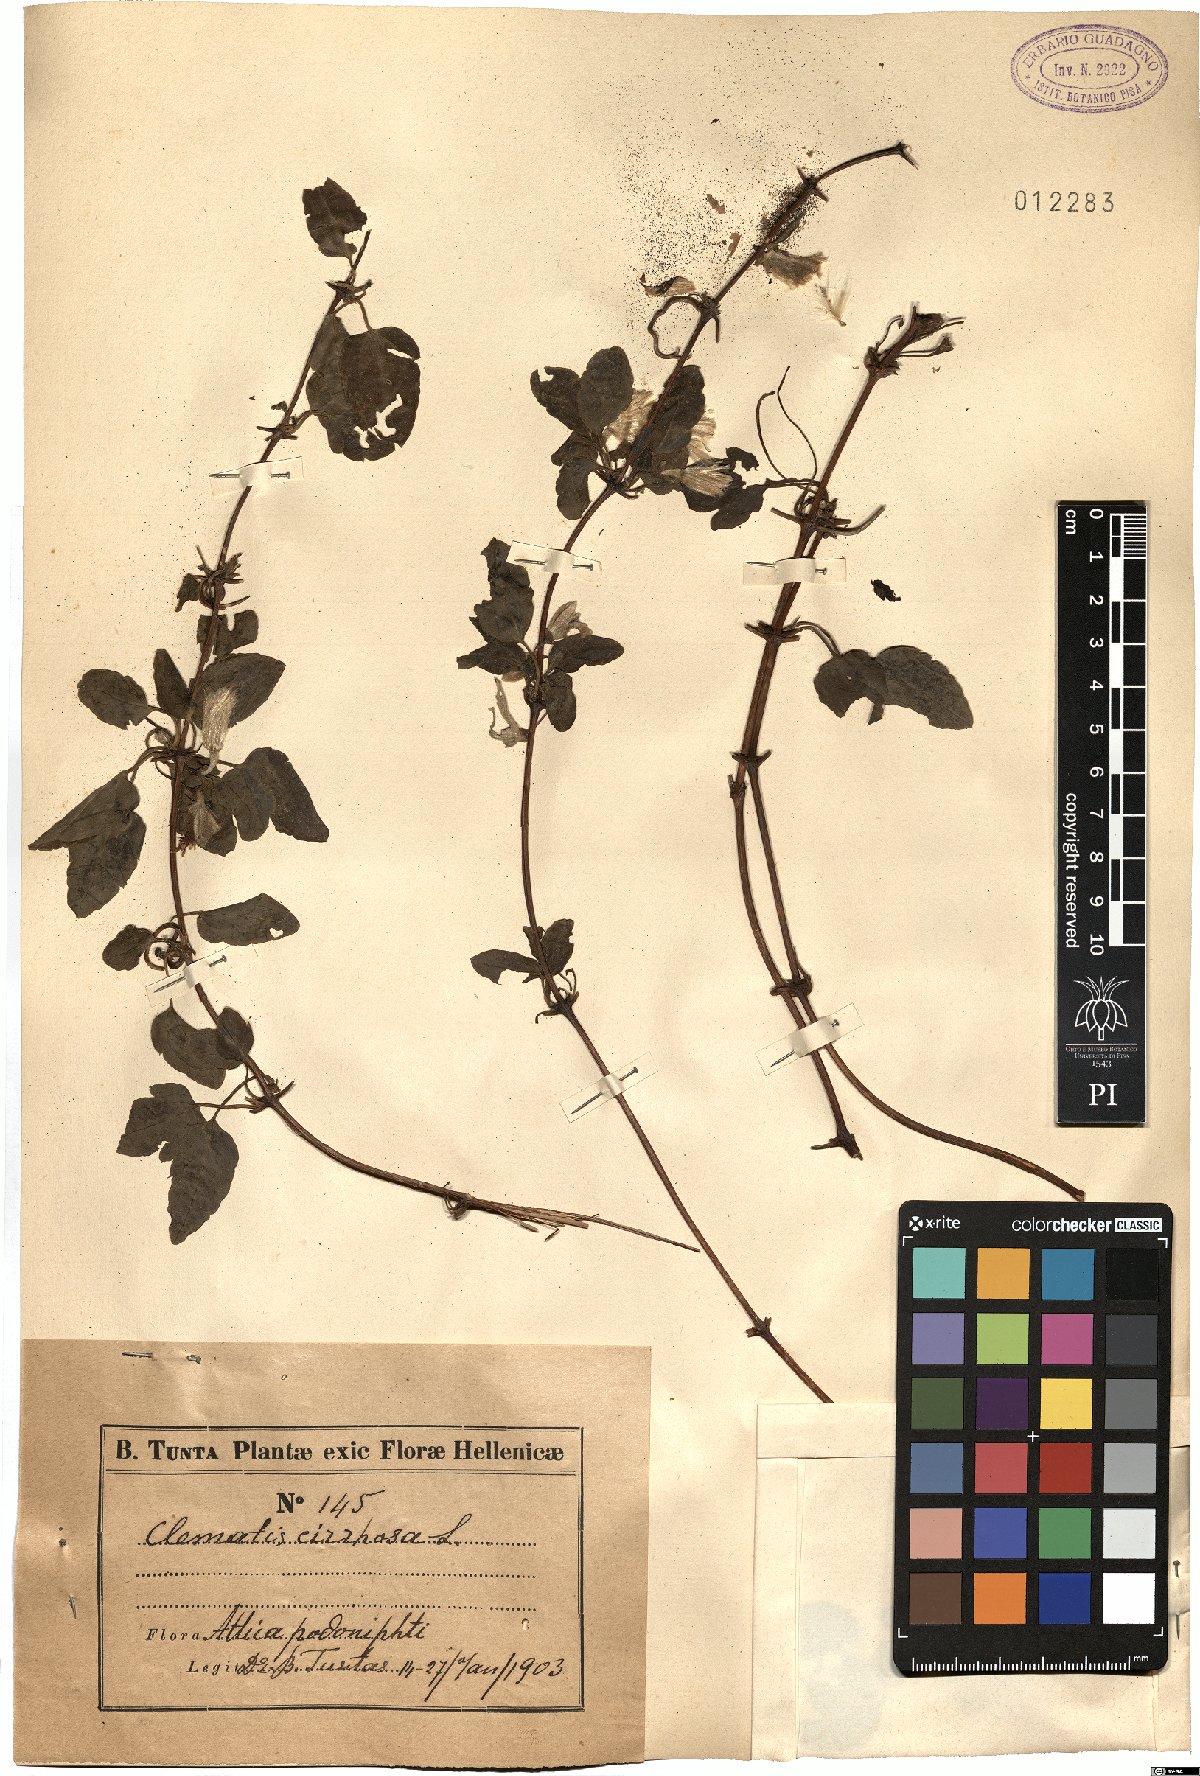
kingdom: Plantae
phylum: Tracheophyta
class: Magnoliopsida
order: Ranunculales
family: Ranunculaceae
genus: Clematis
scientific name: Clematis cirrhosa
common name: Early virgin's-bower
